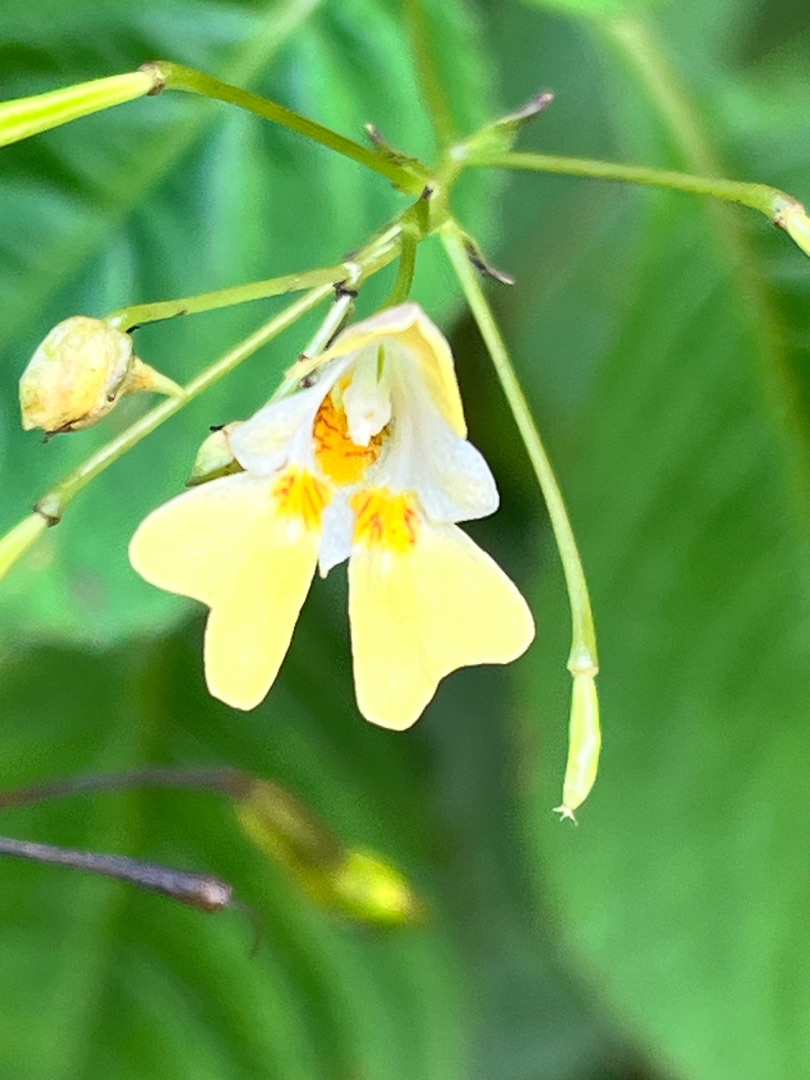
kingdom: Plantae
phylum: Tracheophyta
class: Magnoliopsida
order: Ericales
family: Balsaminaceae
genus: Impatiens
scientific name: Impatiens parviflora
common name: Småblomstret balsamin
